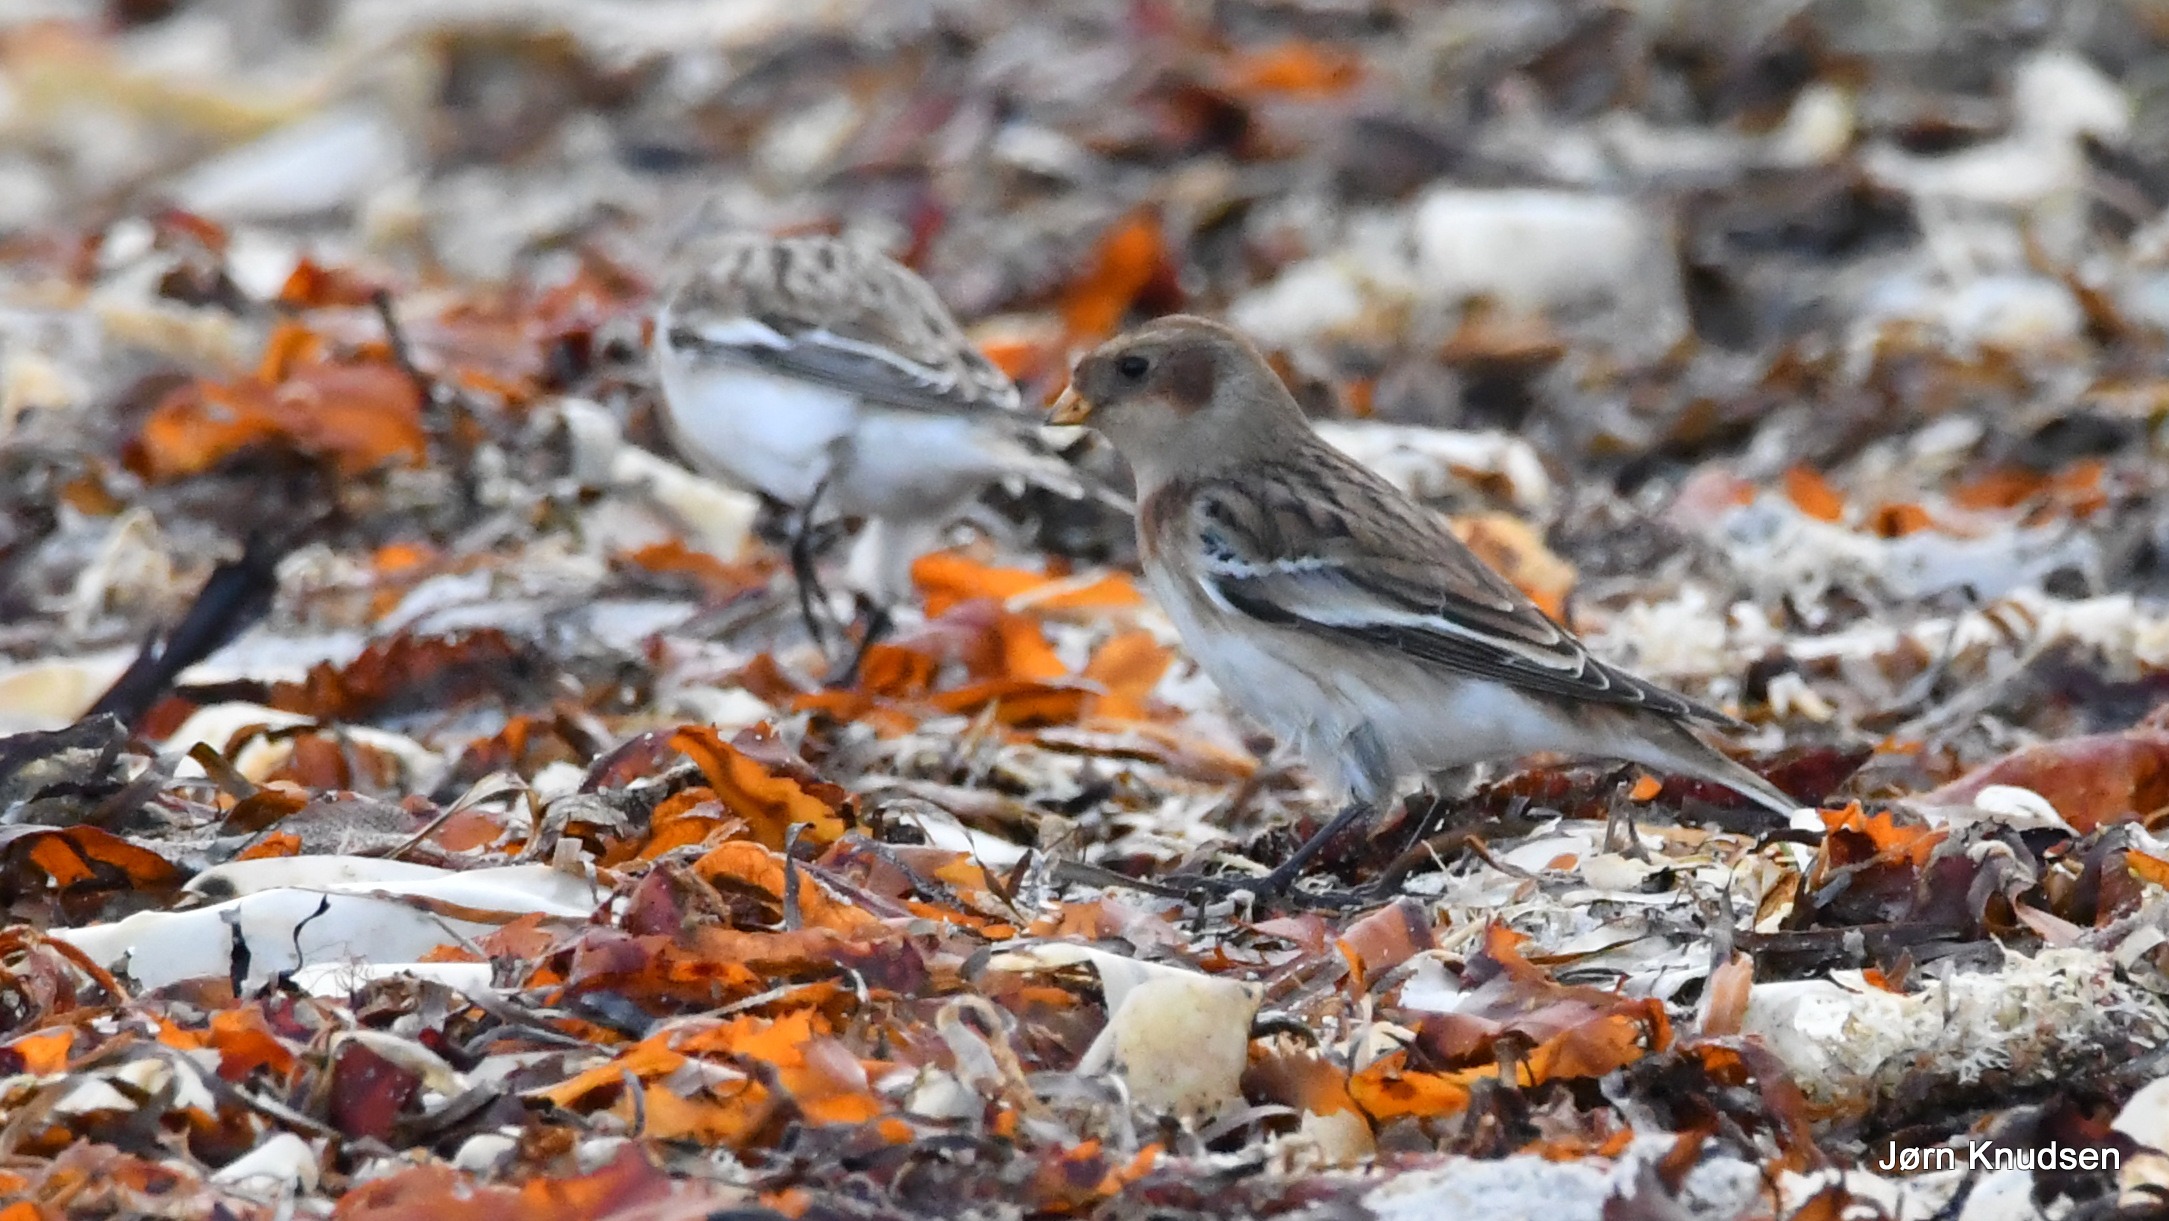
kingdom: Animalia
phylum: Chordata
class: Aves
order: Passeriformes
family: Calcariidae
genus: Plectrophenax
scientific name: Plectrophenax nivalis
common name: Snespurv
